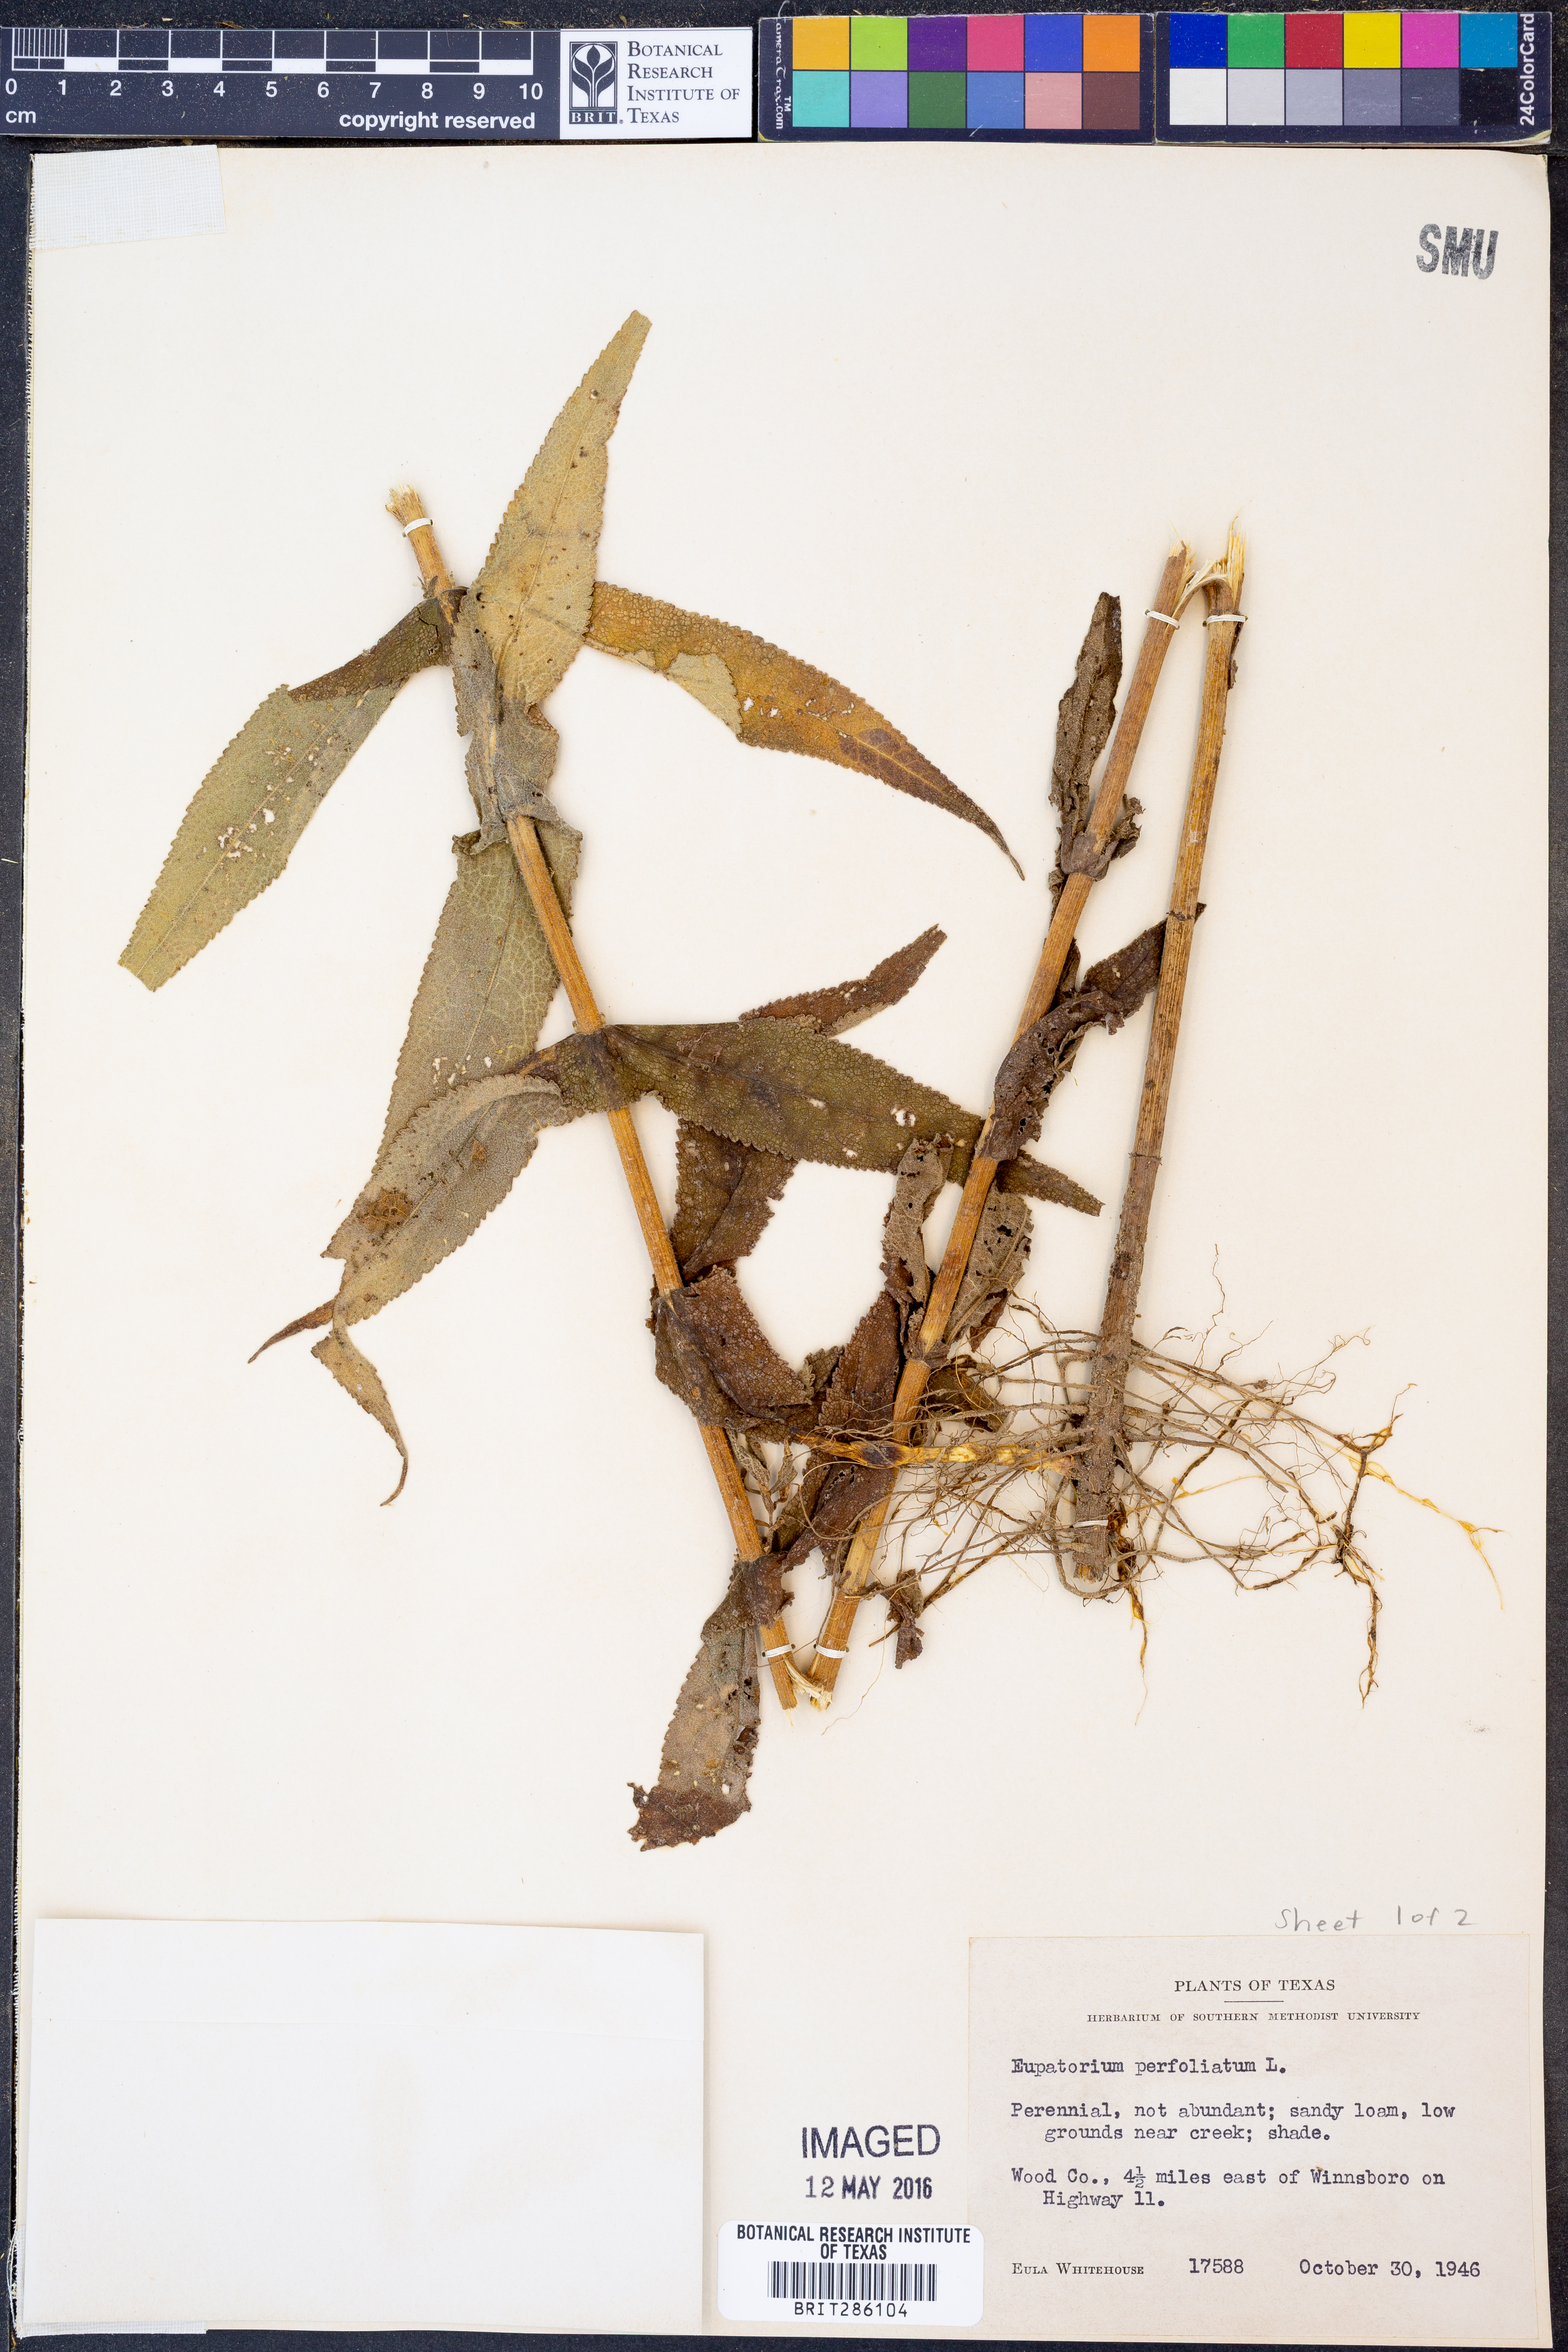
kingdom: Plantae
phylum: Tracheophyta
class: Magnoliopsida
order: Asterales
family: Asteraceae
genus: Eupatorium
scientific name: Eupatorium perfoliatum
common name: Boneset
